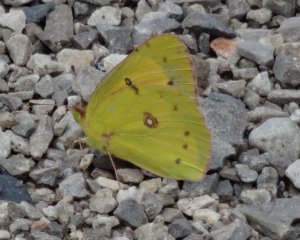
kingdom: Animalia
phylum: Arthropoda
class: Insecta
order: Lepidoptera
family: Pieridae
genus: Colias
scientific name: Colias eurytheme
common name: Orange Sulphur
